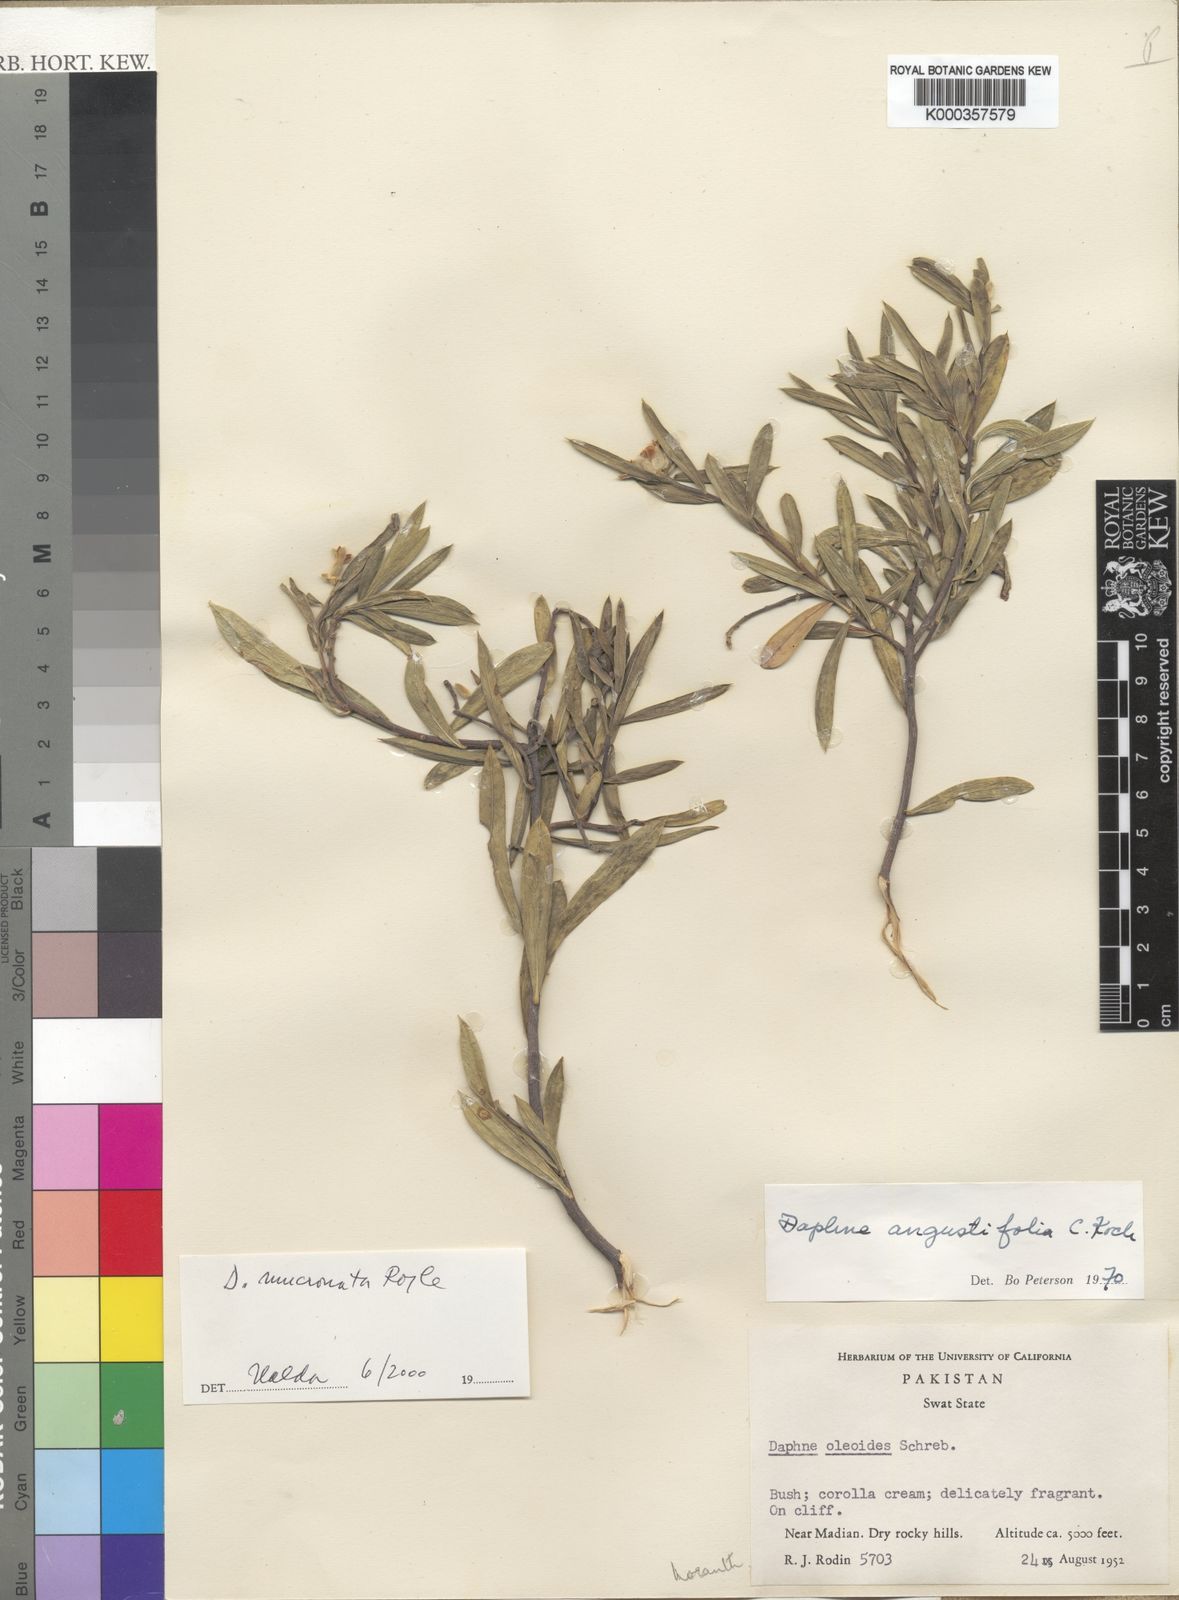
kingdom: Plantae
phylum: Tracheophyta
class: Magnoliopsida
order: Malvales
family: Thymelaeaceae
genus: Daphne
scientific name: Daphne mucronata
